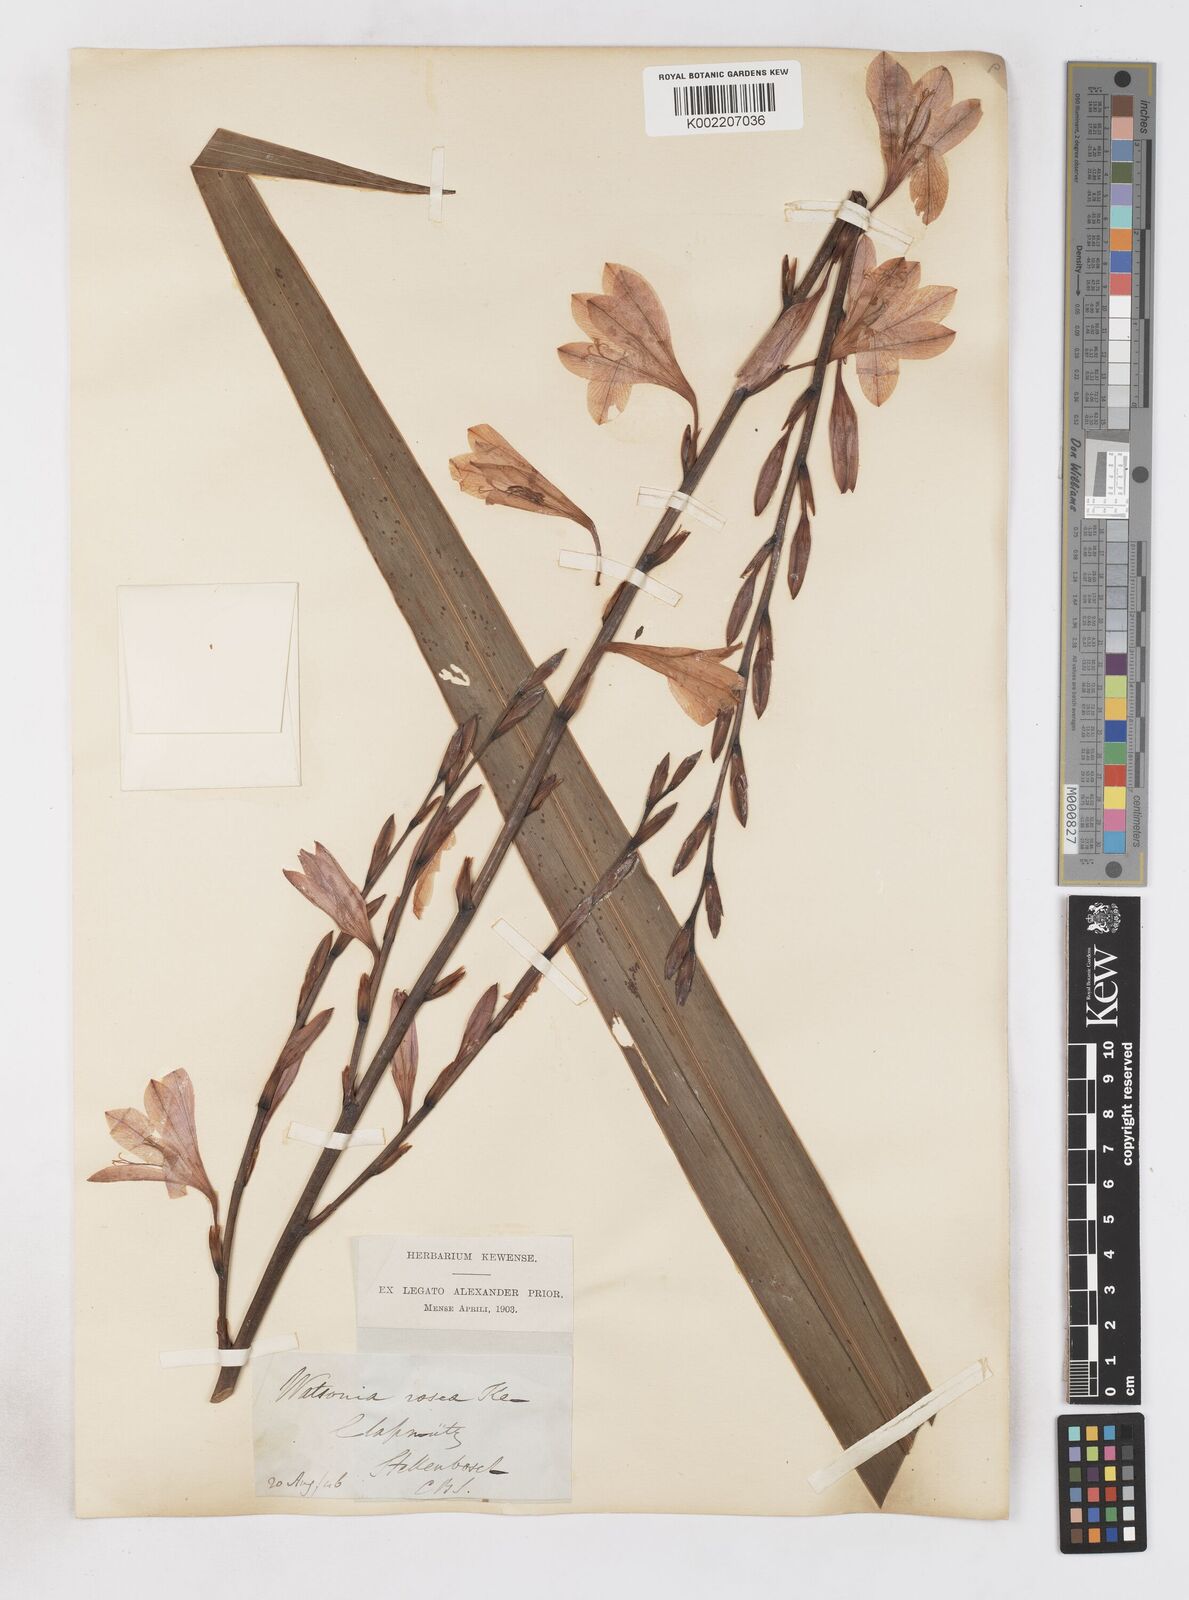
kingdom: Plantae
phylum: Tracheophyta
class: Liliopsida
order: Asparagales
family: Iridaceae
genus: Watsonia
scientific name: Watsonia borbonica
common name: Bugle-lily
